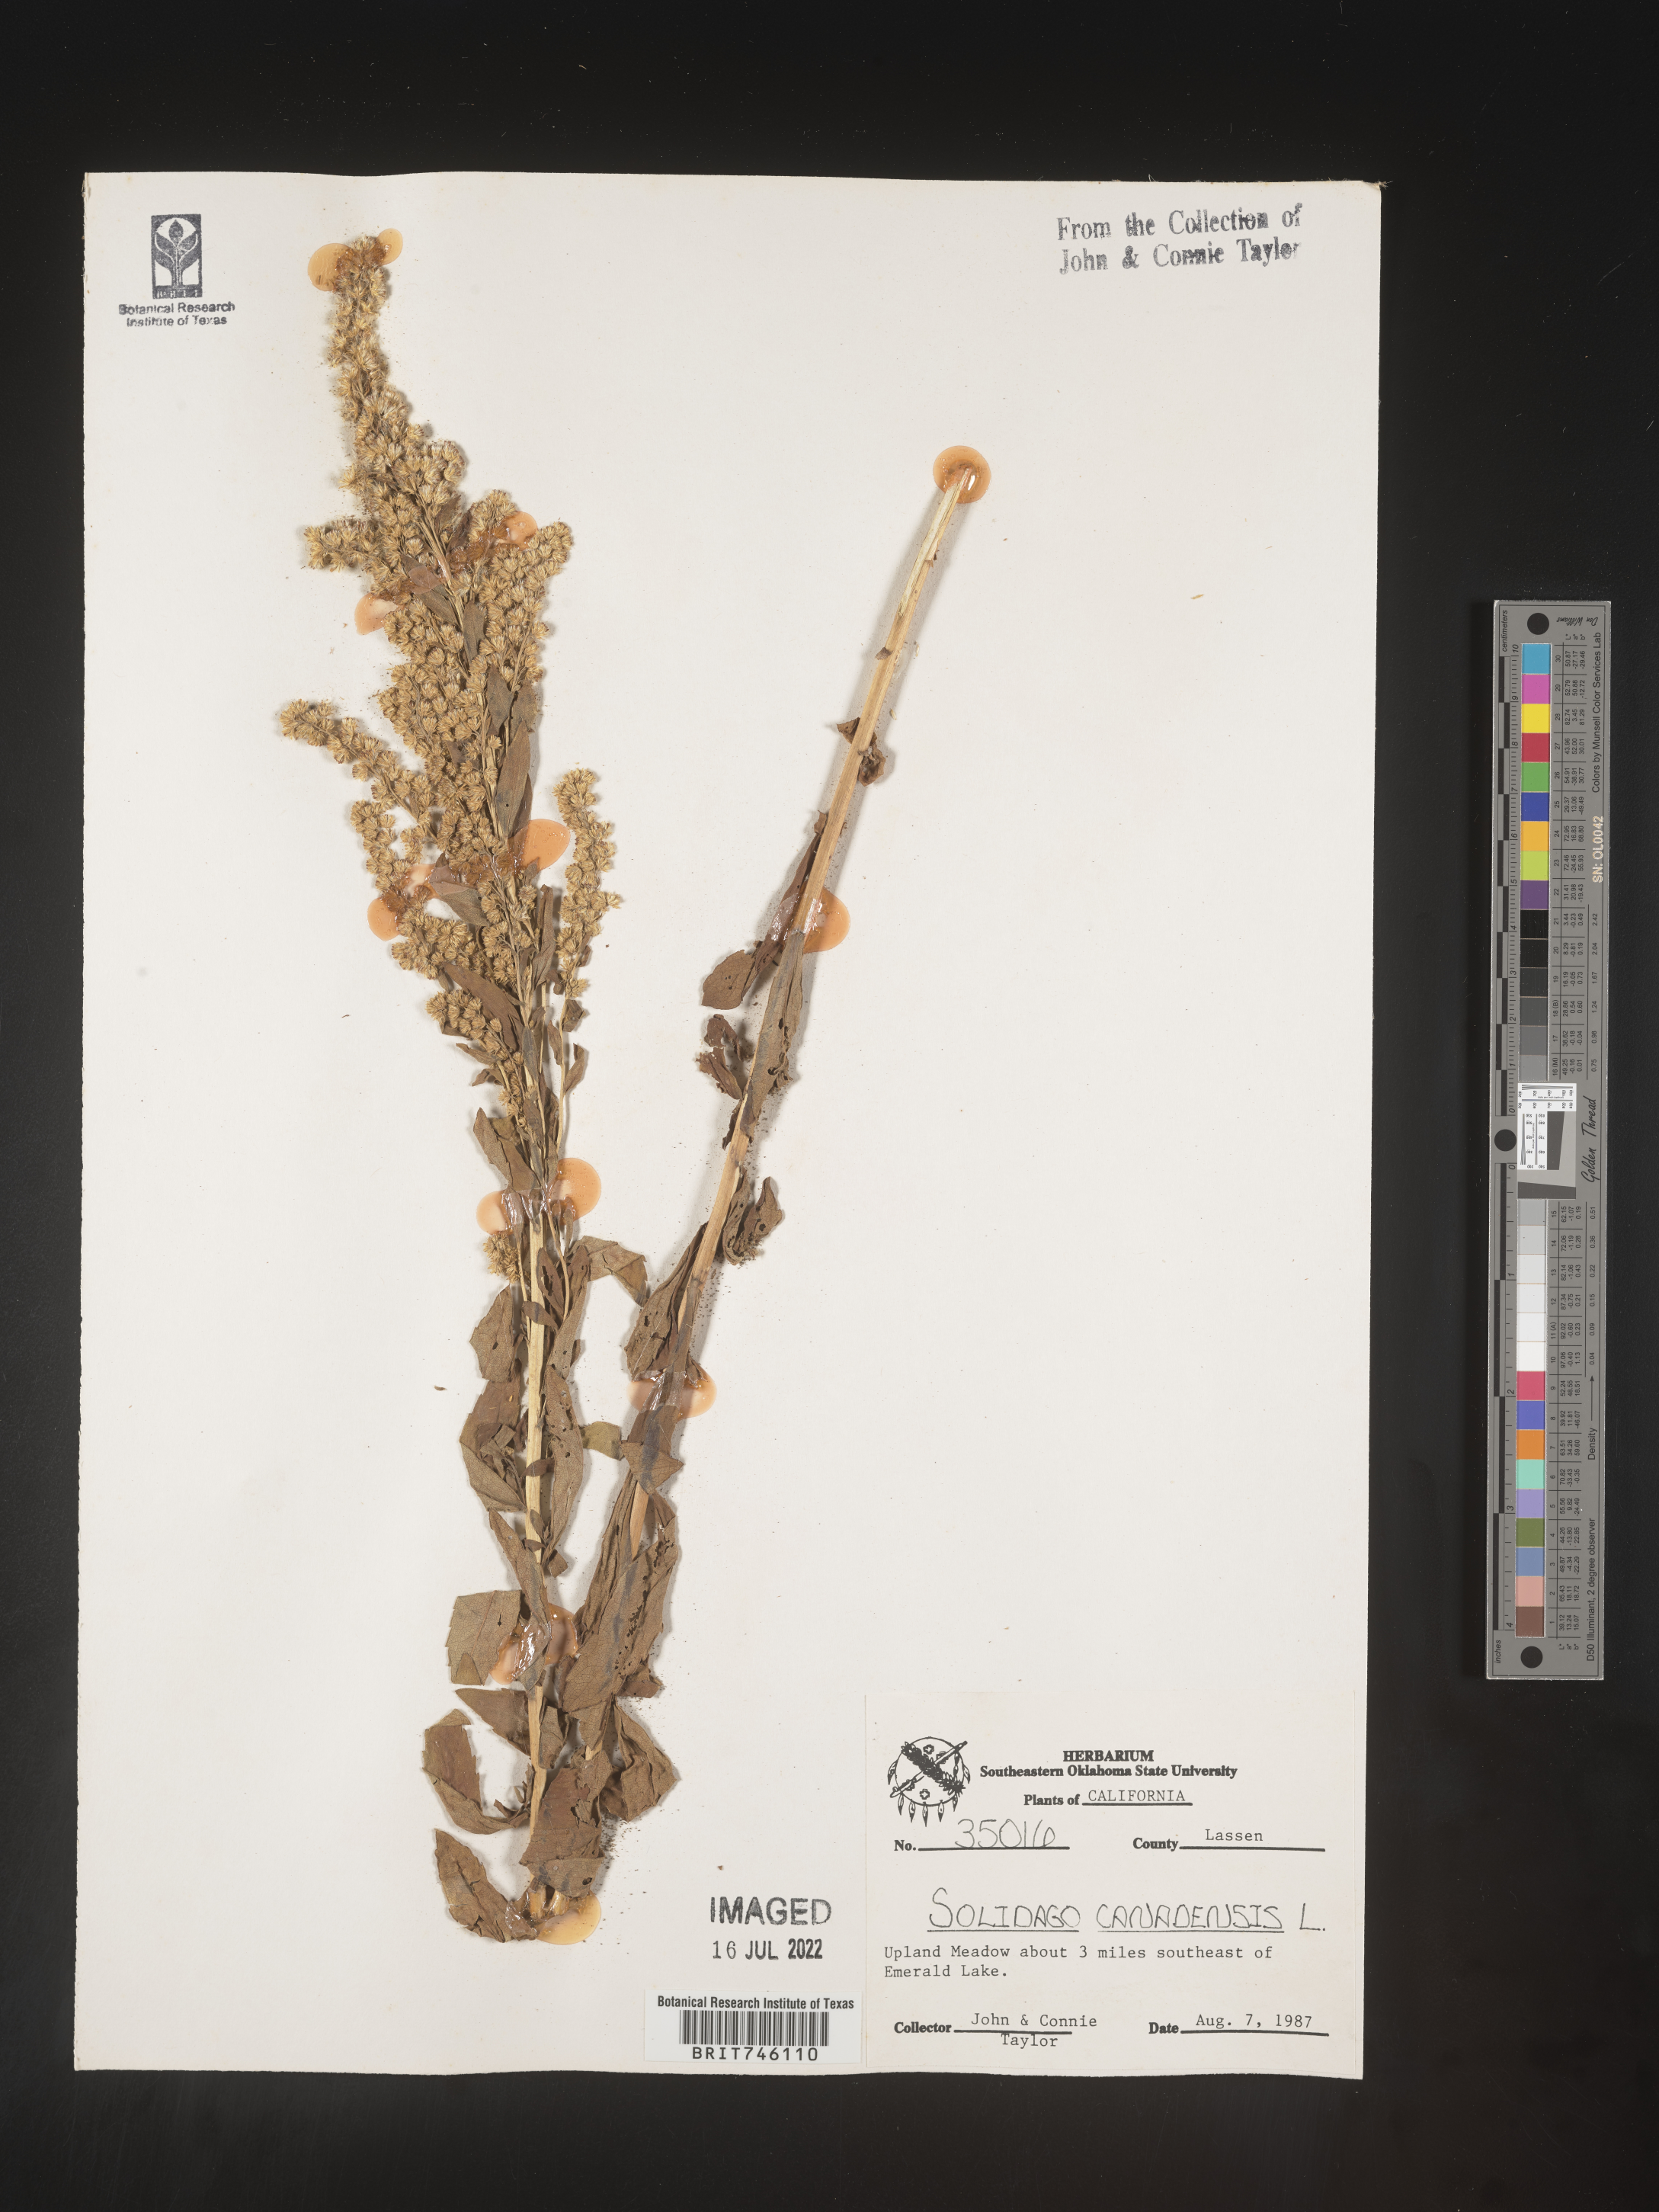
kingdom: Plantae
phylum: Tracheophyta
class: Magnoliopsida
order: Asterales
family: Asteraceae
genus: Solidago
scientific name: Solidago canadensis
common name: Canada goldenrod
